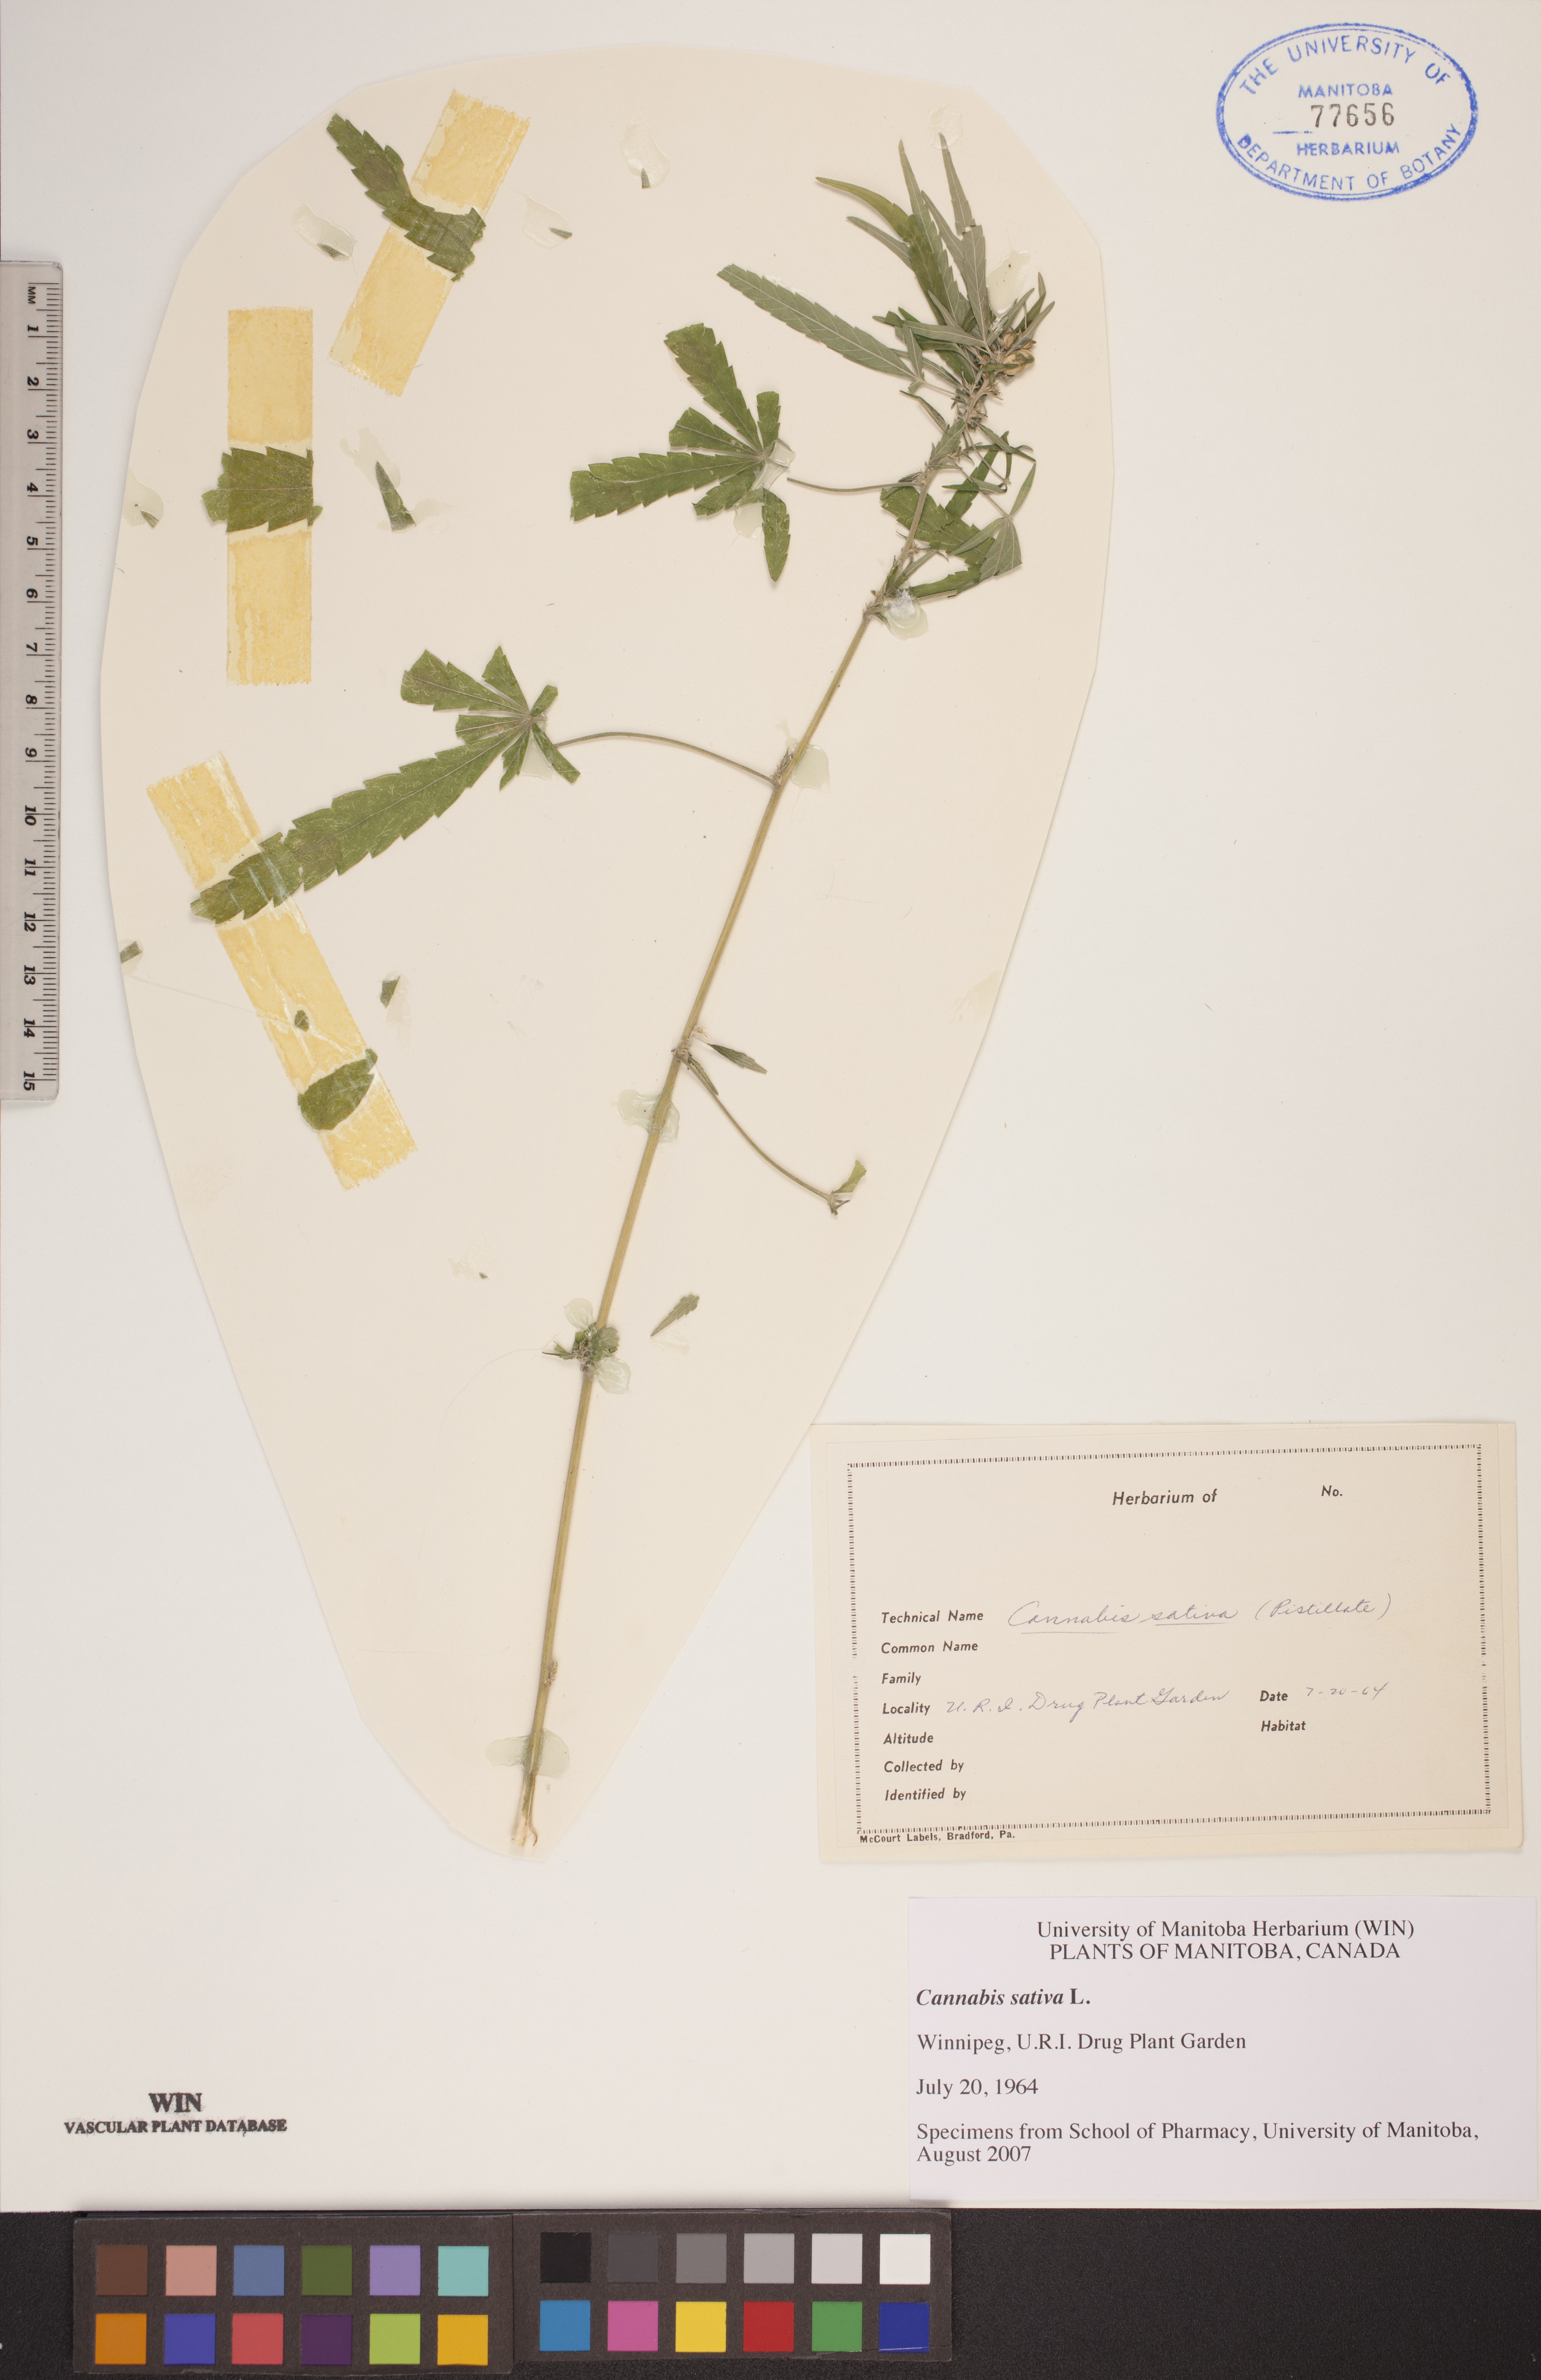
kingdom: Plantae
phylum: Tracheophyta
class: Magnoliopsida
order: Rosales
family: Cannabaceae
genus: Cannabis
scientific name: Cannabis sativa
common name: Hemp
